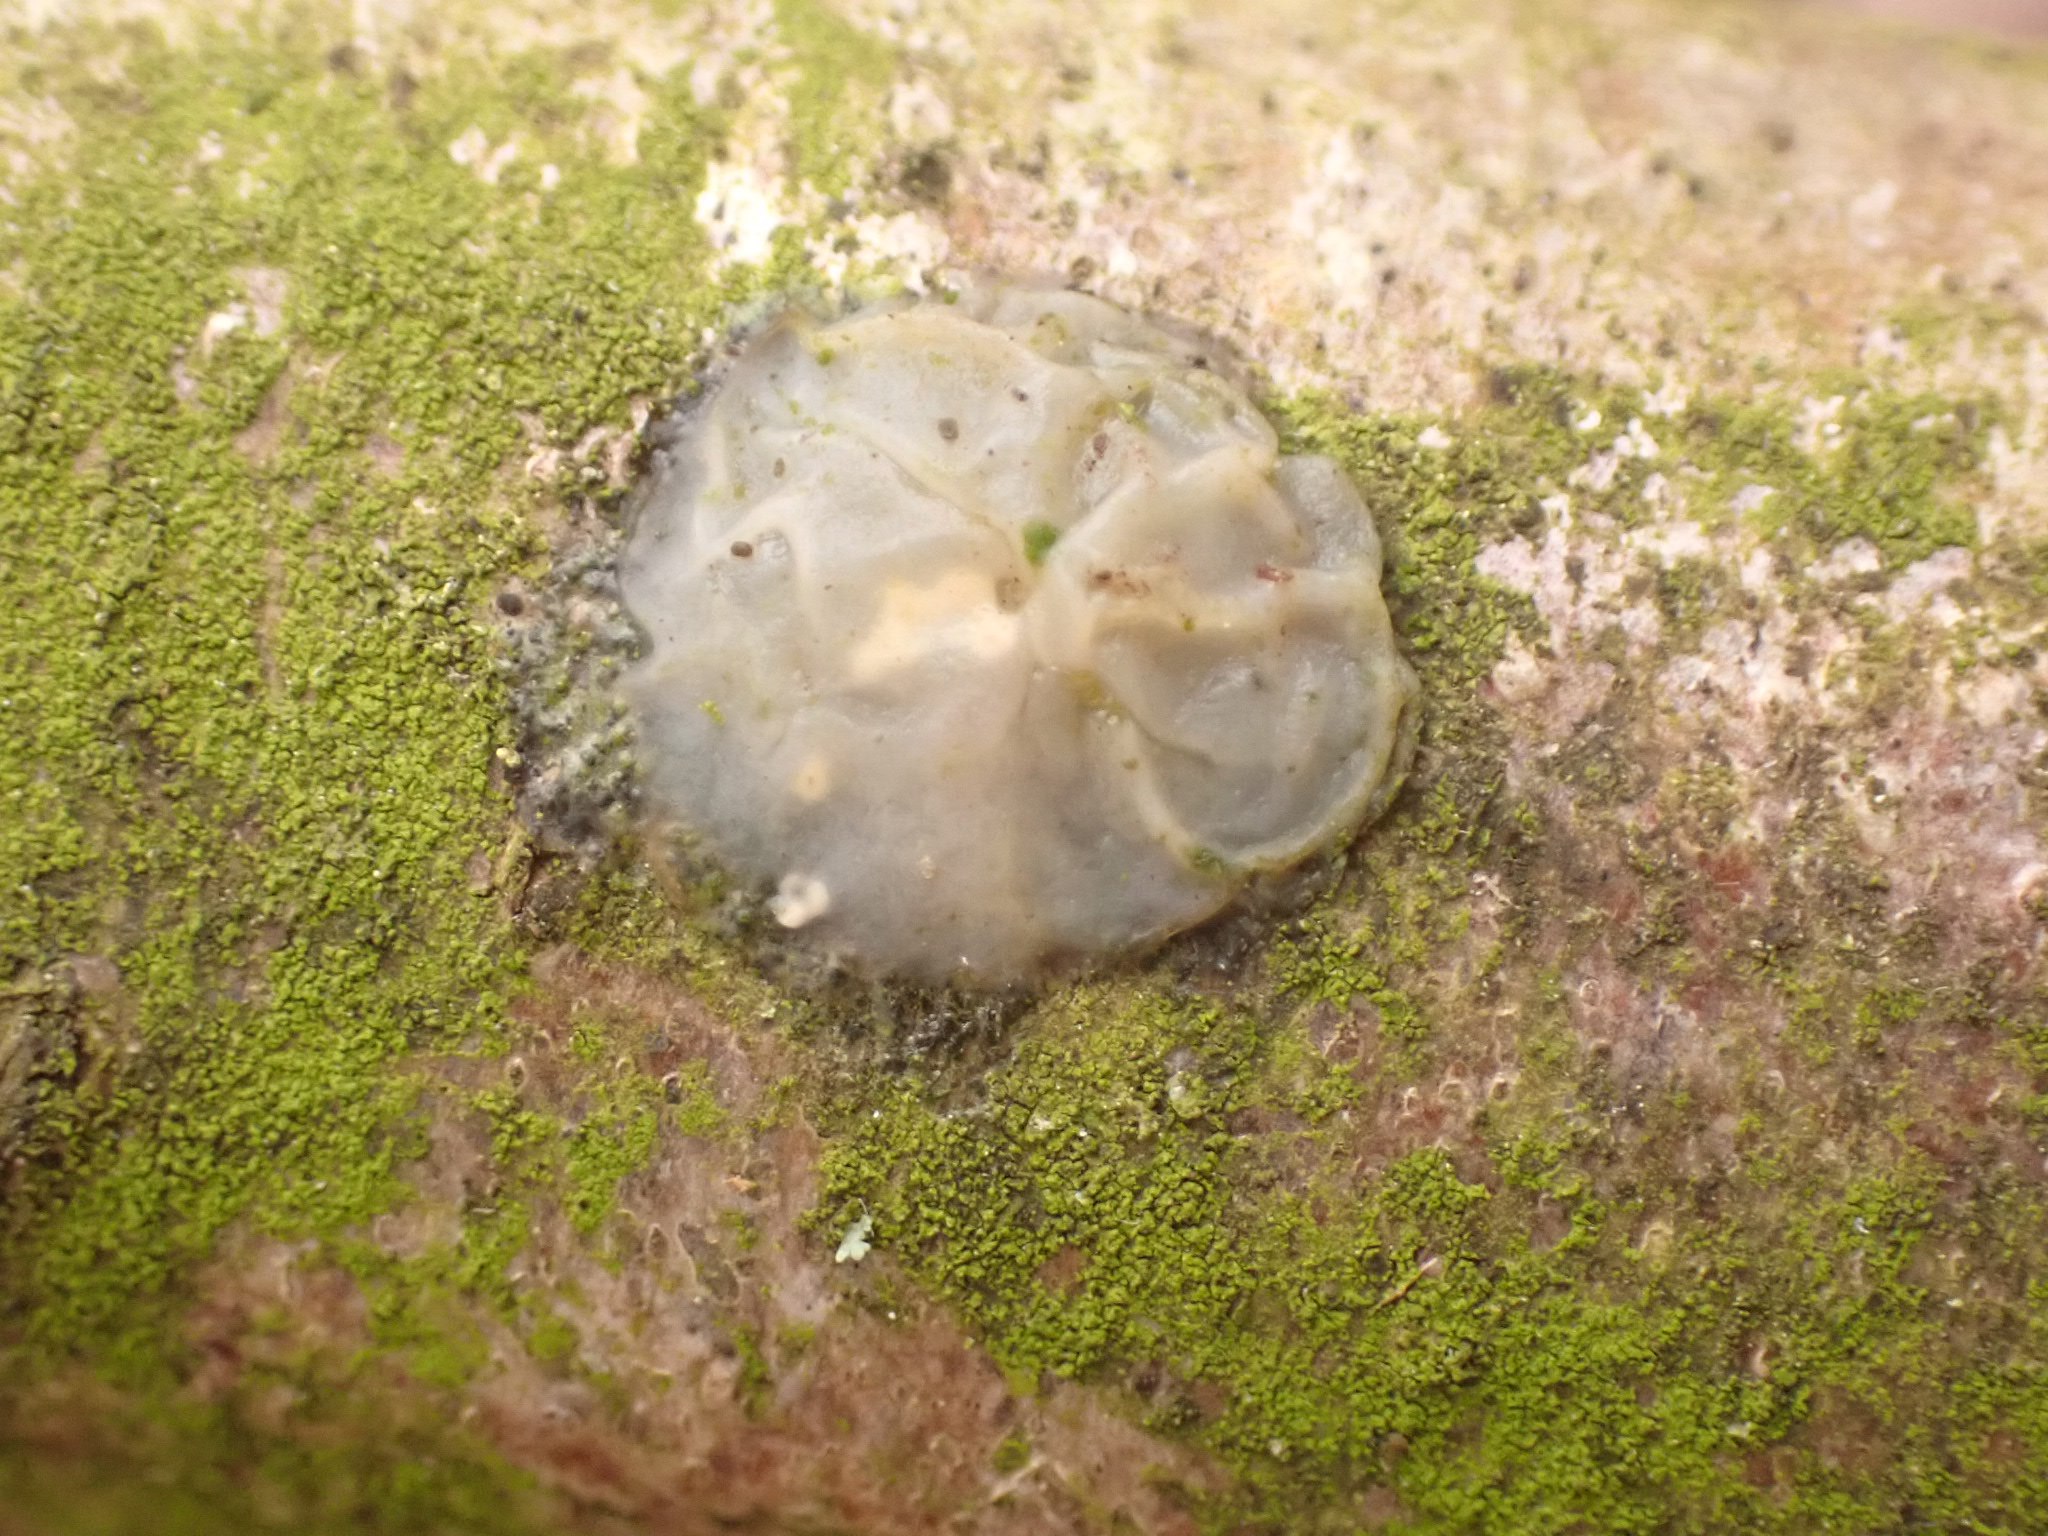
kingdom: Fungi
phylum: Basidiomycota
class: Agaricomycetes
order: Auriculariales
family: Hyaloriaceae
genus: Myxarium
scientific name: Myxarium nucleatum
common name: klar bævretop
